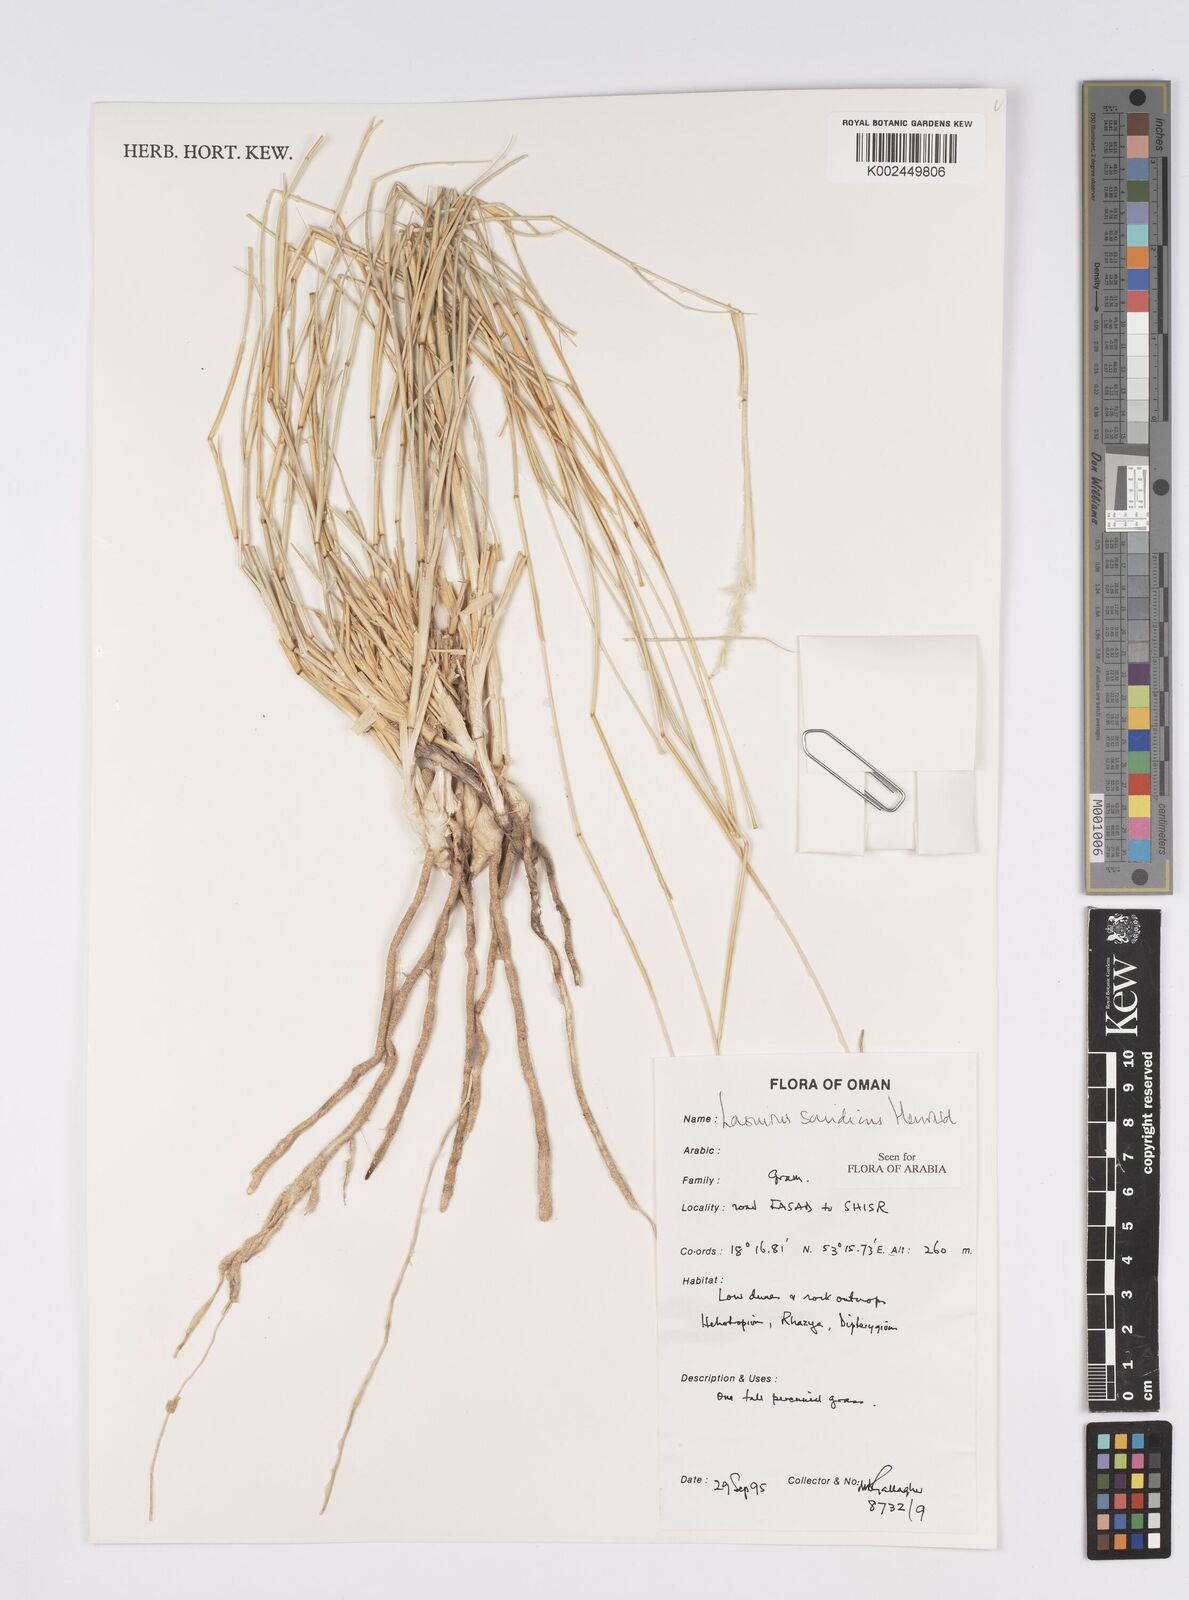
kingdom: Plantae
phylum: Tracheophyta
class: Liliopsida
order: Poales
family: Poaceae
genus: Lasiurus
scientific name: Lasiurus scindicus
